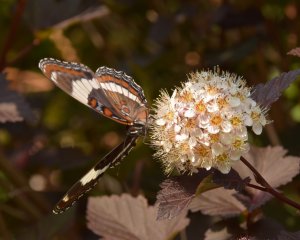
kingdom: Animalia
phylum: Arthropoda
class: Insecta
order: Lepidoptera
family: Nymphalidae
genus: Limenitis
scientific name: Limenitis arthemis
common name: Red-spotted Admiral
